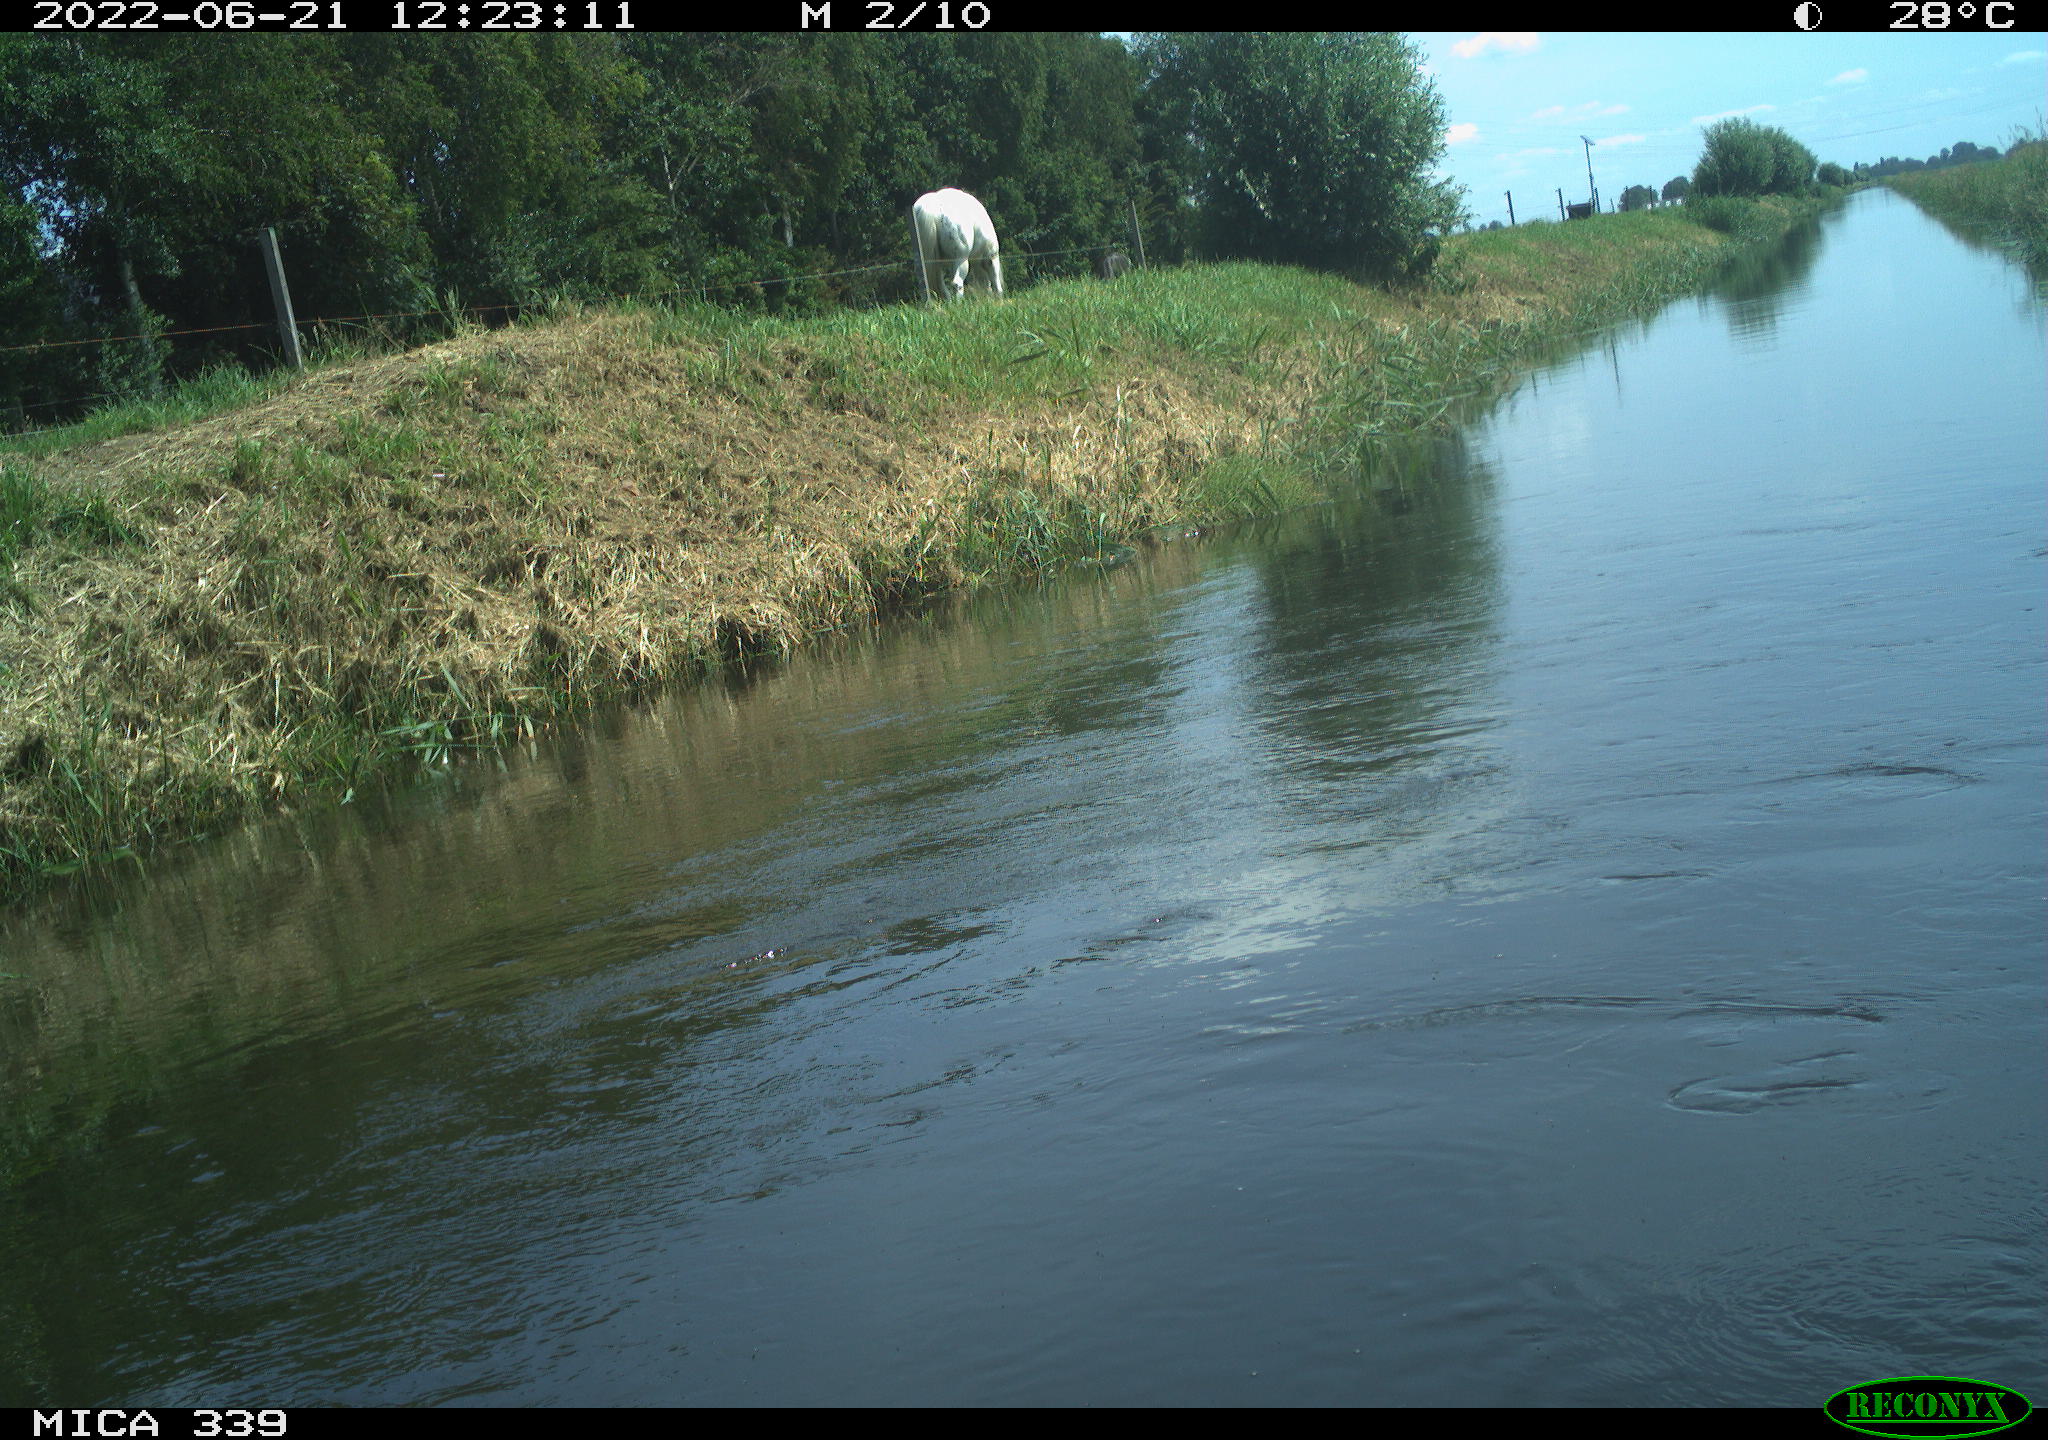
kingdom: Animalia
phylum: Chordata
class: Mammalia
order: Perissodactyla
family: Equidae
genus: Equus
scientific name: Equus caballus
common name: Horse
